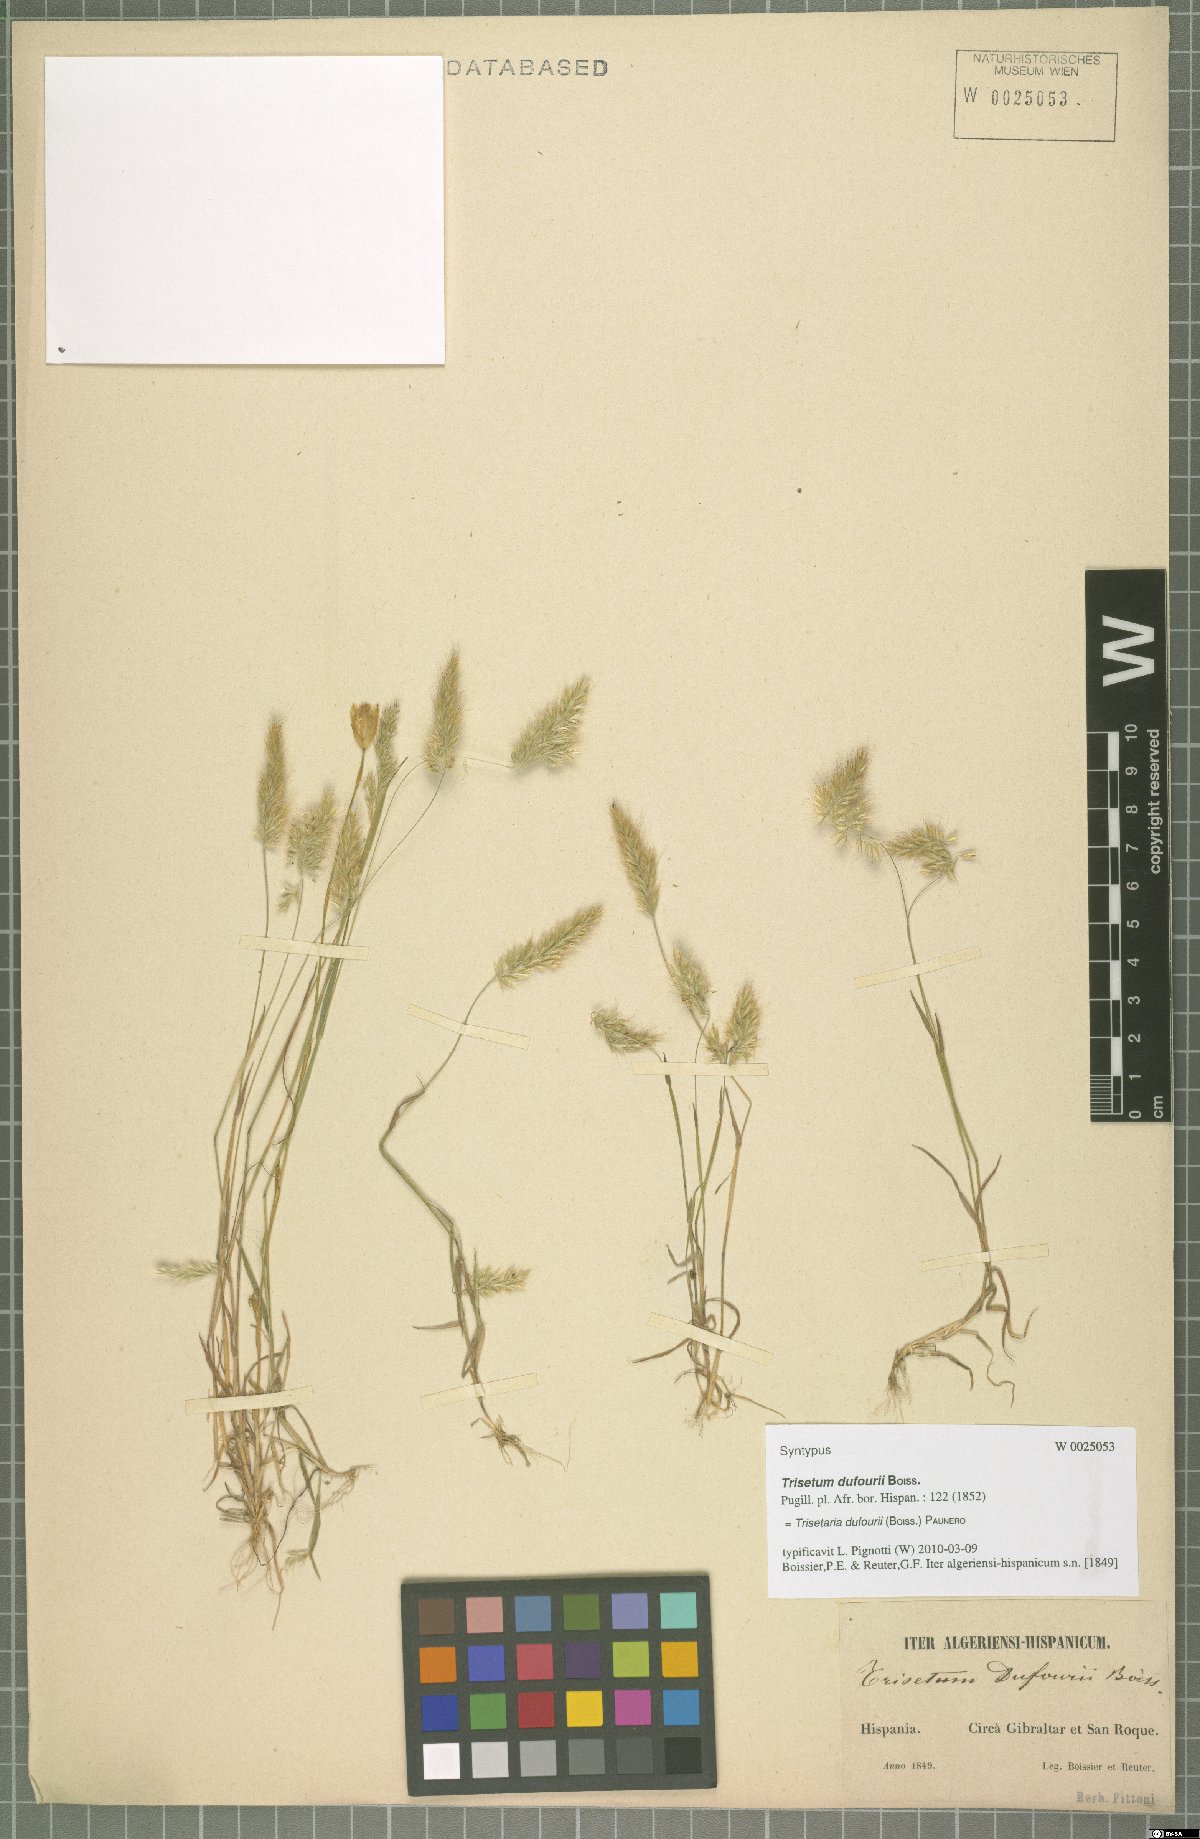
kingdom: Plantae
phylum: Tracheophyta
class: Liliopsida
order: Poales
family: Poaceae
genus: Trisetaria
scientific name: Trisetaria dufourei
